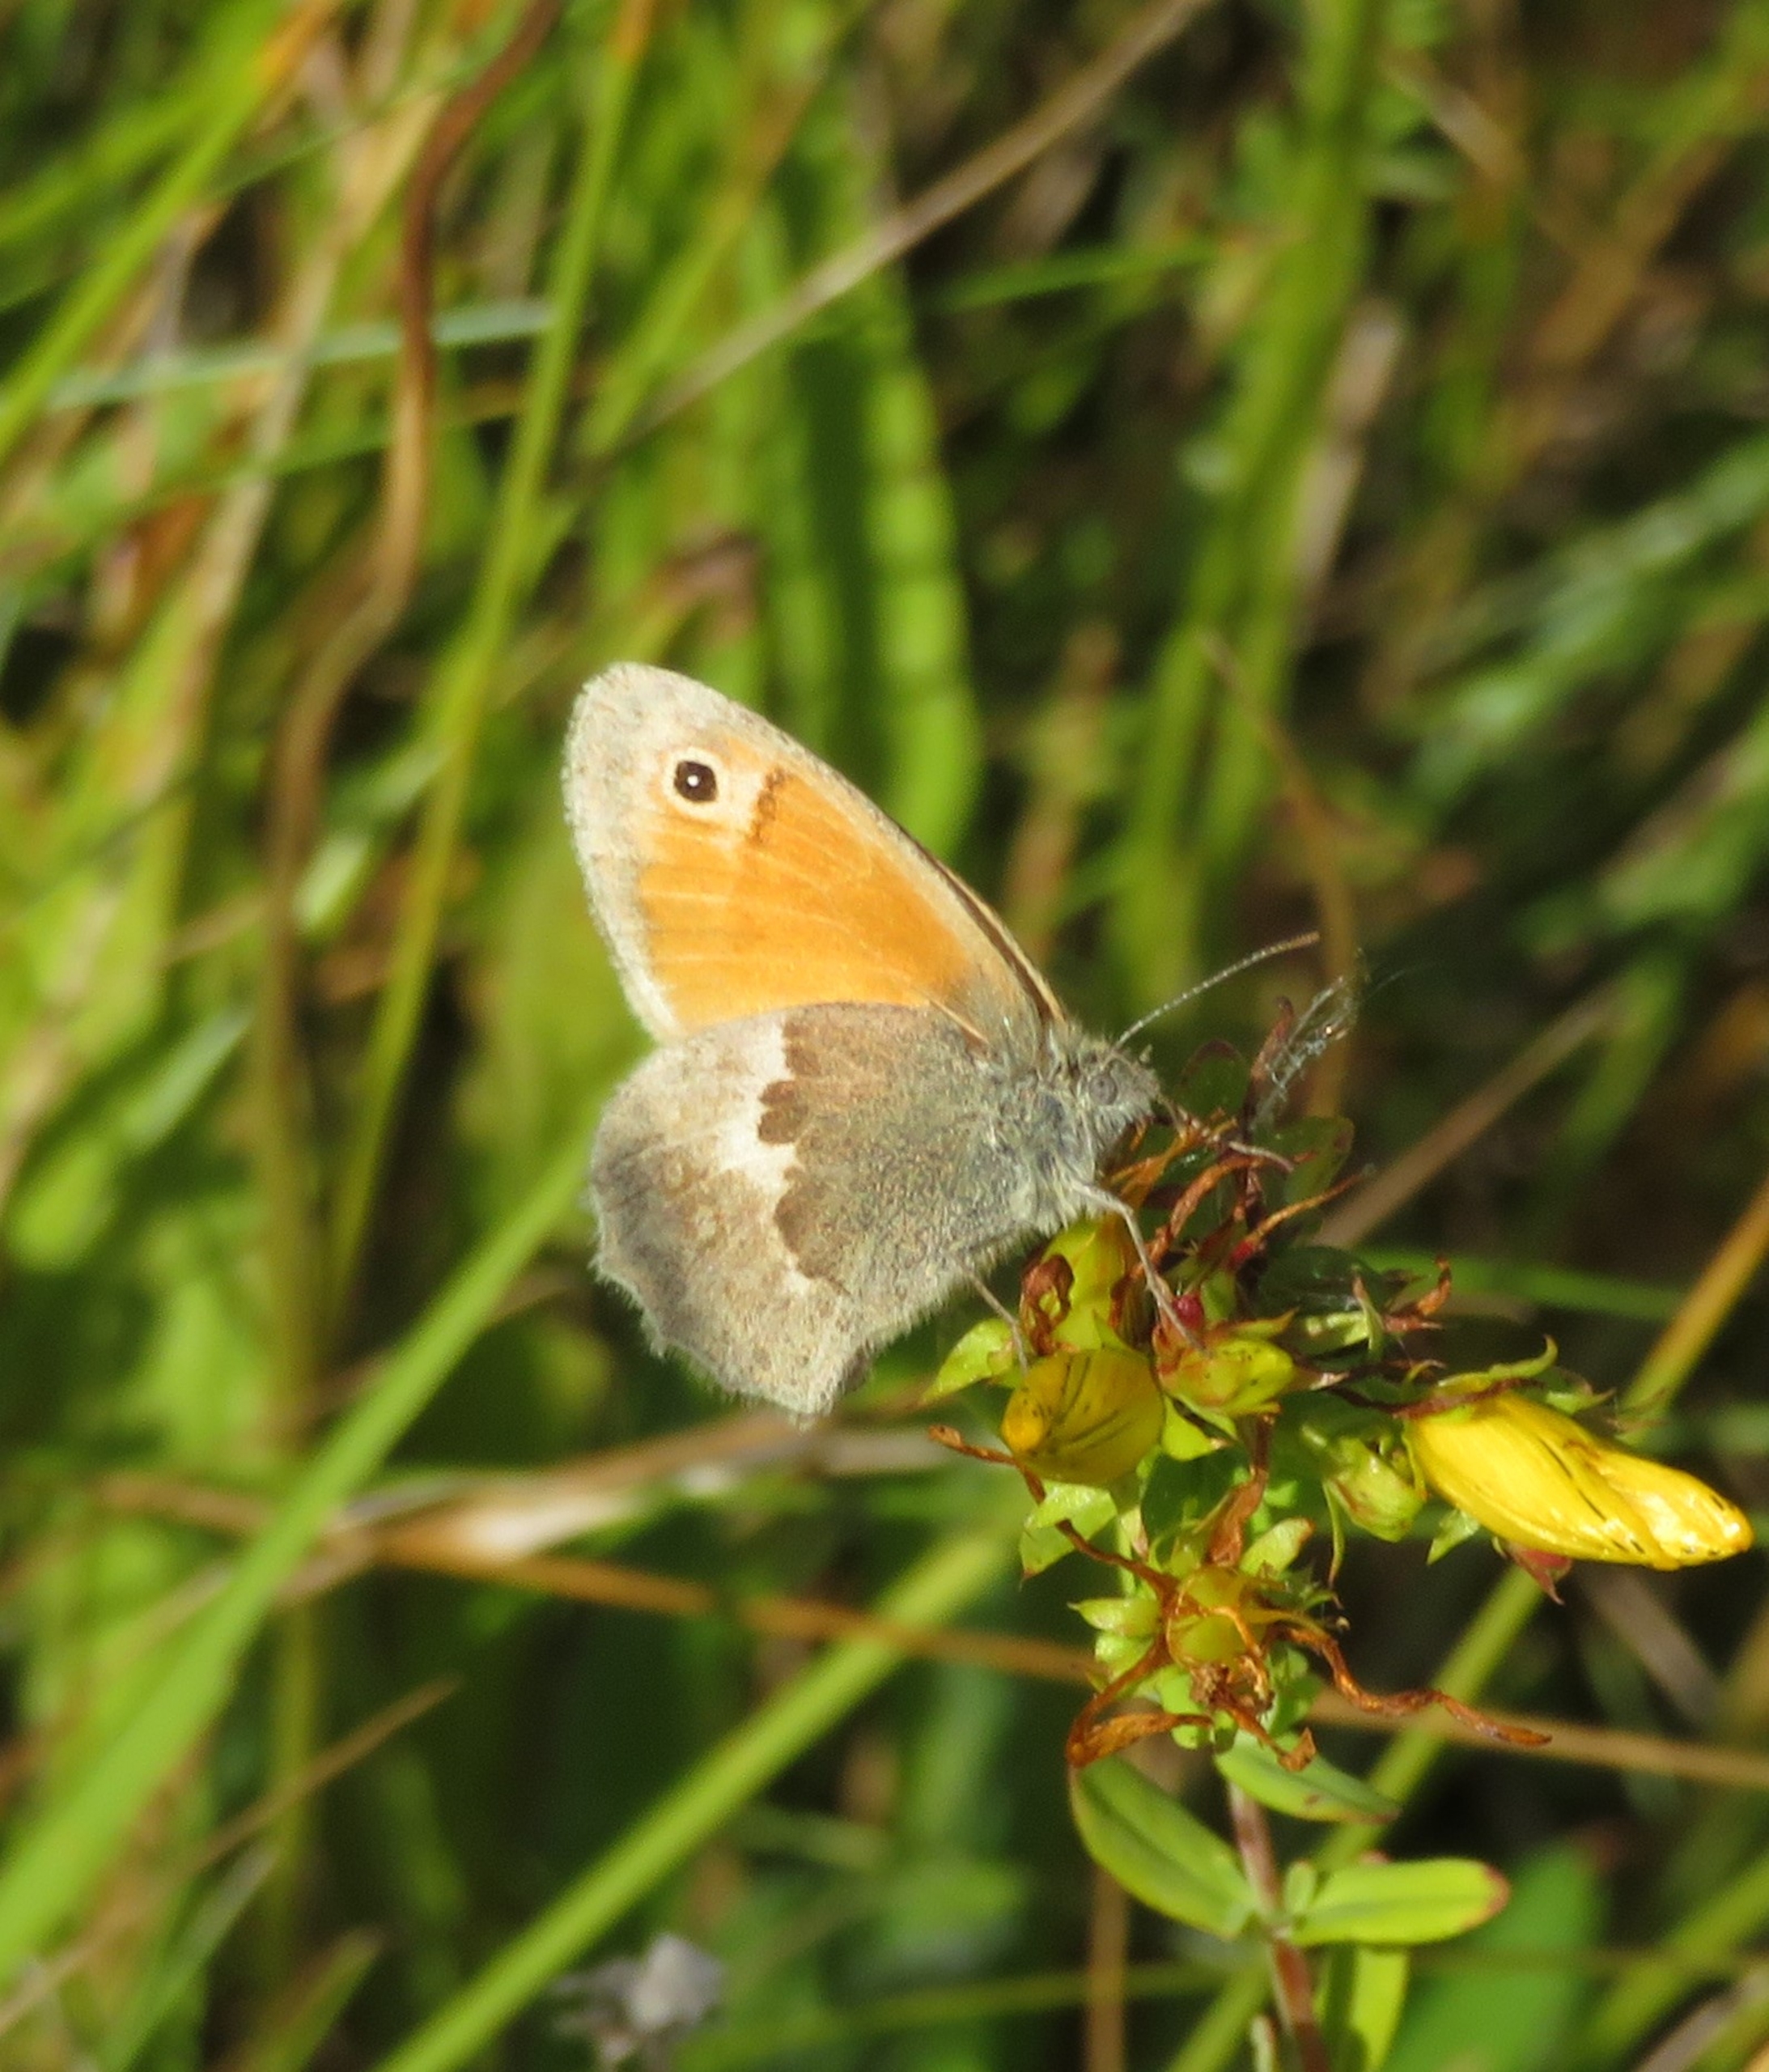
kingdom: Animalia
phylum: Arthropoda
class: Insecta
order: Lepidoptera
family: Nymphalidae
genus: Coenonympha
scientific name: Coenonympha pamphilus
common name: Okkergul randøje
